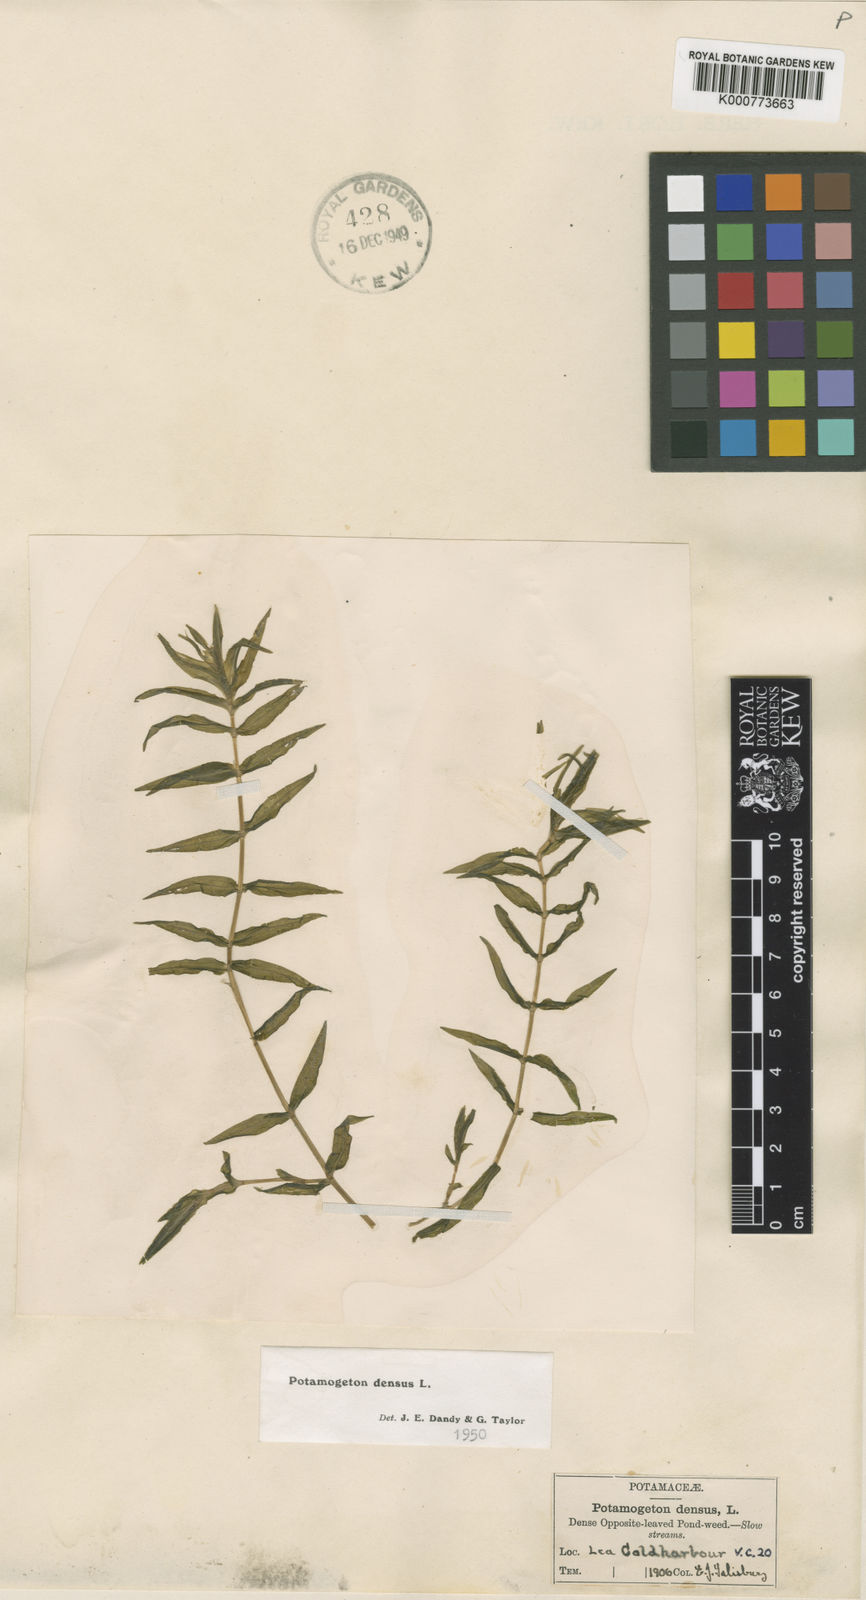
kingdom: Plantae
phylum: Tracheophyta
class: Liliopsida
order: Alismatales
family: Potamogetonaceae
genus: Groenlandia
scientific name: Groenlandia densa
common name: Opposite-leaved pondweed
